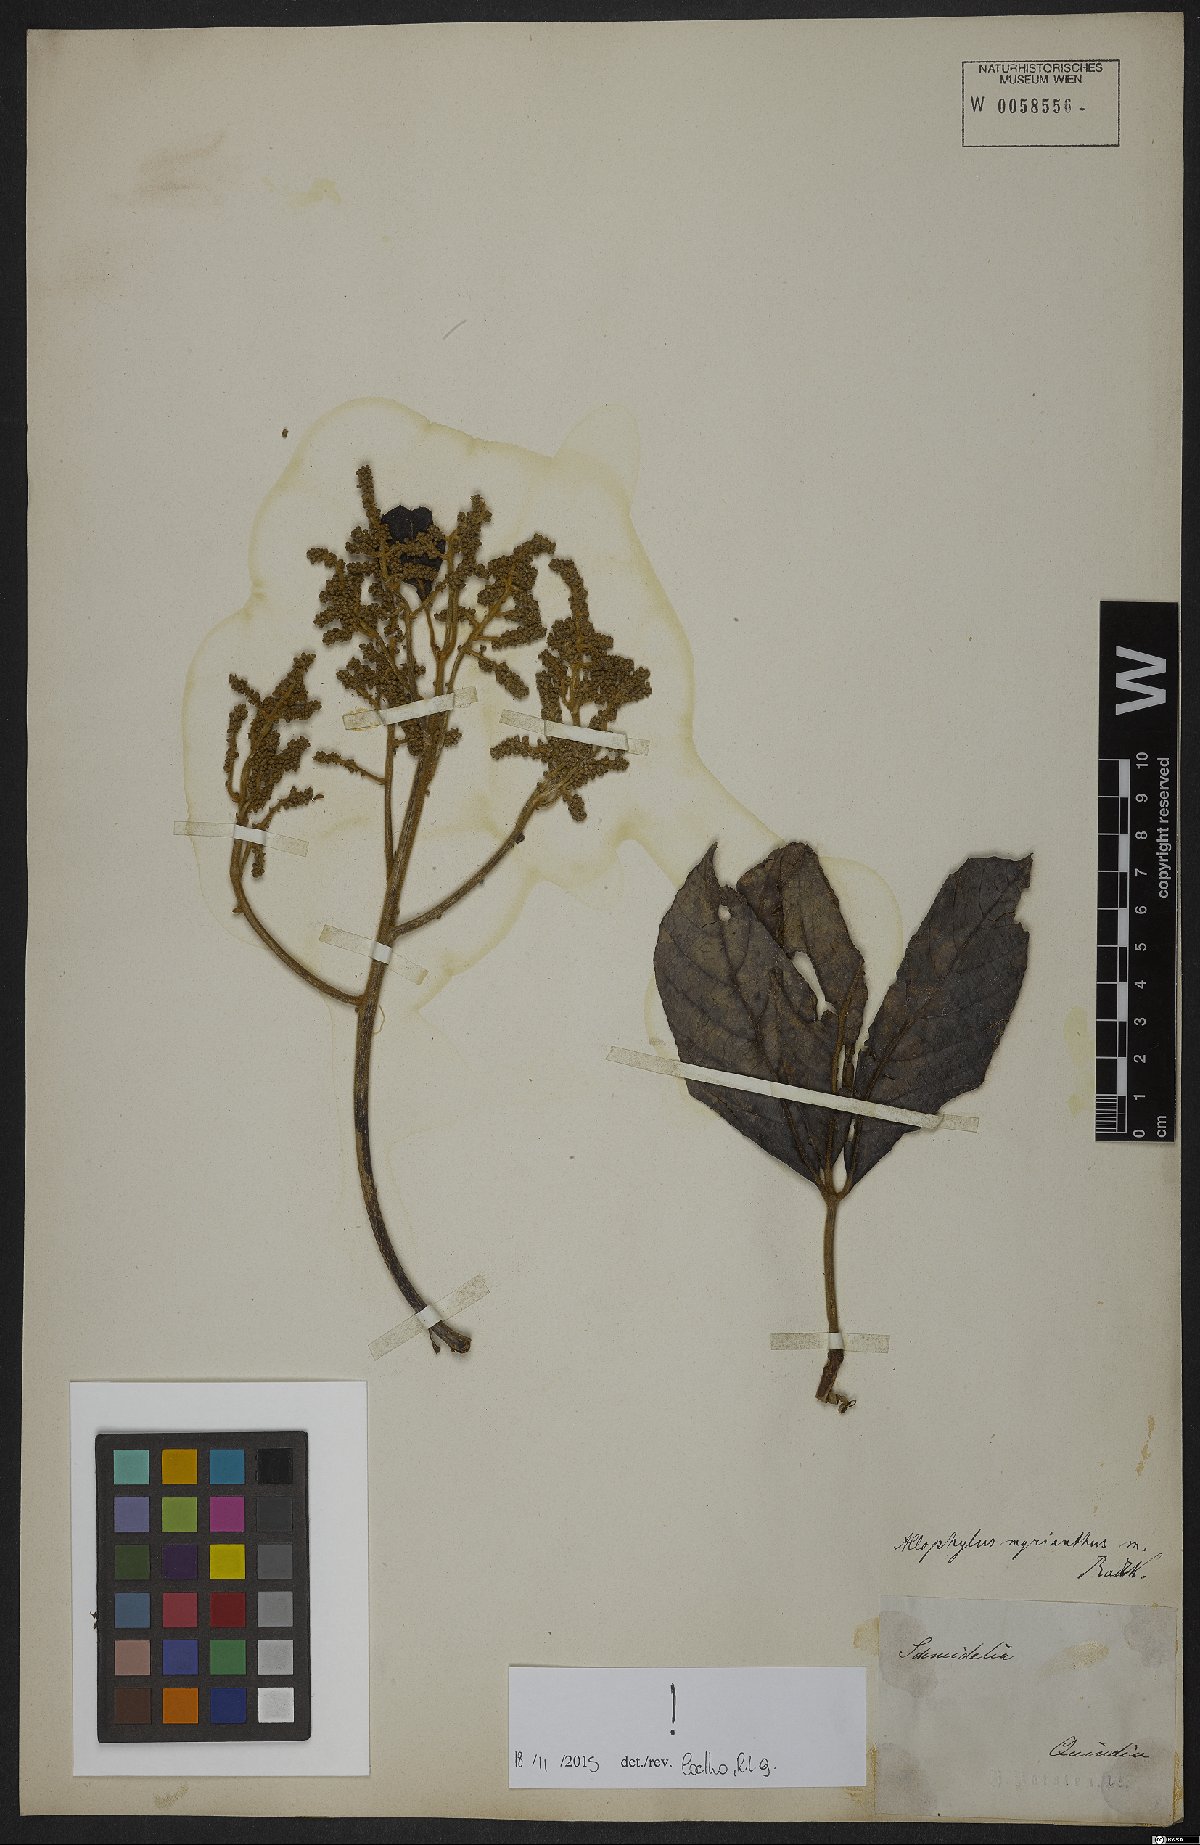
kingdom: Plantae
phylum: Tracheophyta
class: Magnoliopsida
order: Sapindales
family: Sapindaceae
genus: Allophylus
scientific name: Allophylus
